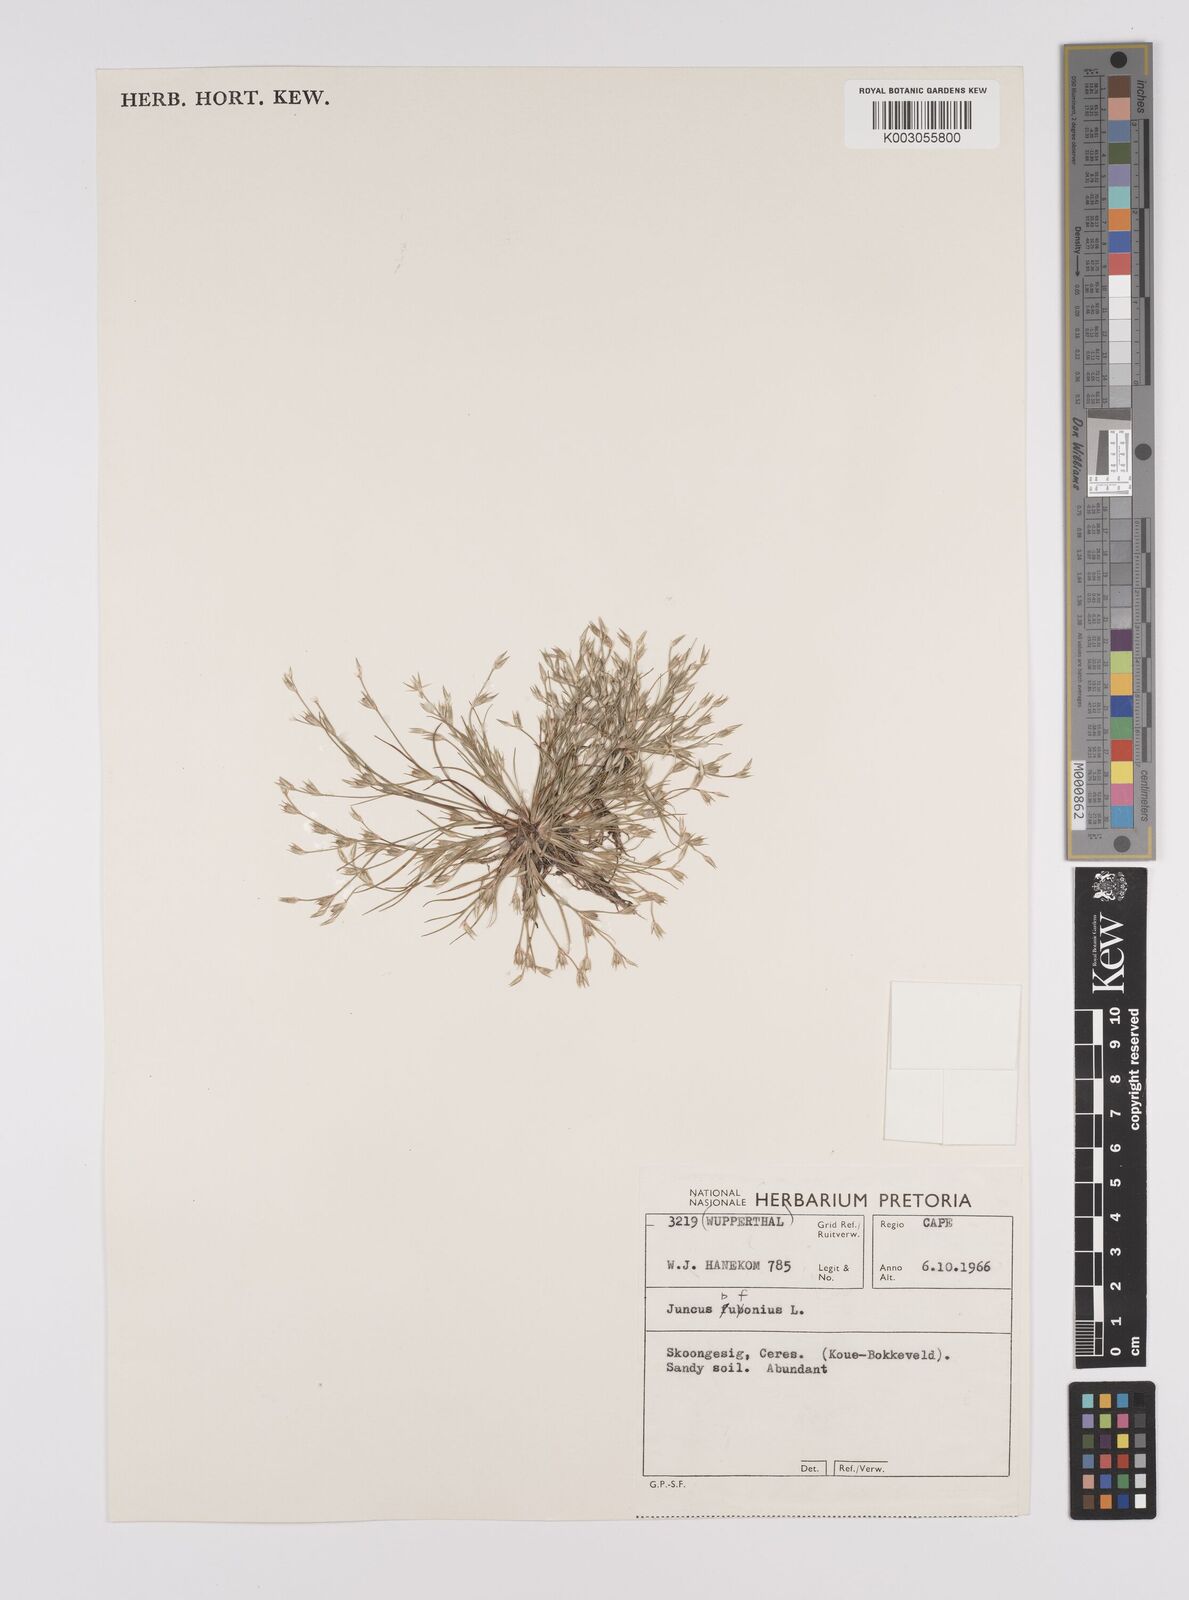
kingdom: Plantae
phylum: Tracheophyta
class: Liliopsida
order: Poales
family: Juncaceae
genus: Juncus
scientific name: Juncus bufonius
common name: Toad rush
